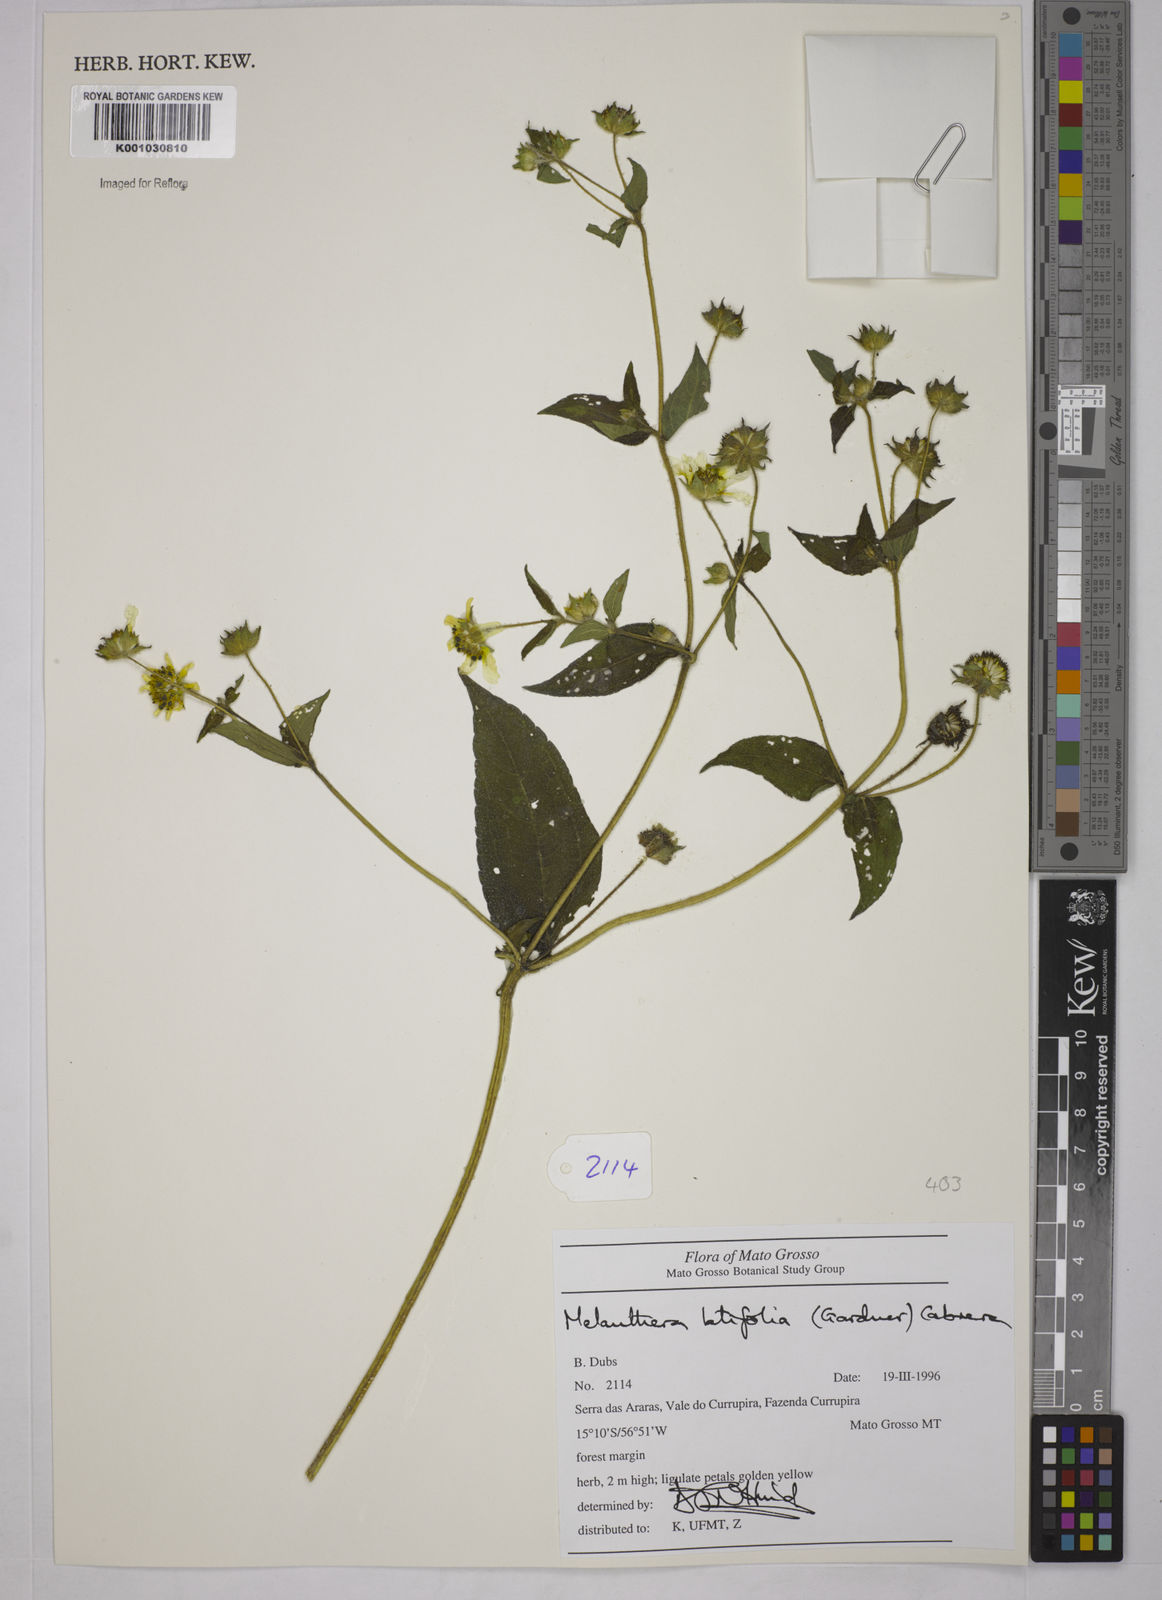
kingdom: Plantae
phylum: Tracheophyta
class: Magnoliopsida
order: Asterales
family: Asteraceae
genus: Echinocephalum
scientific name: Echinocephalum latifolium
